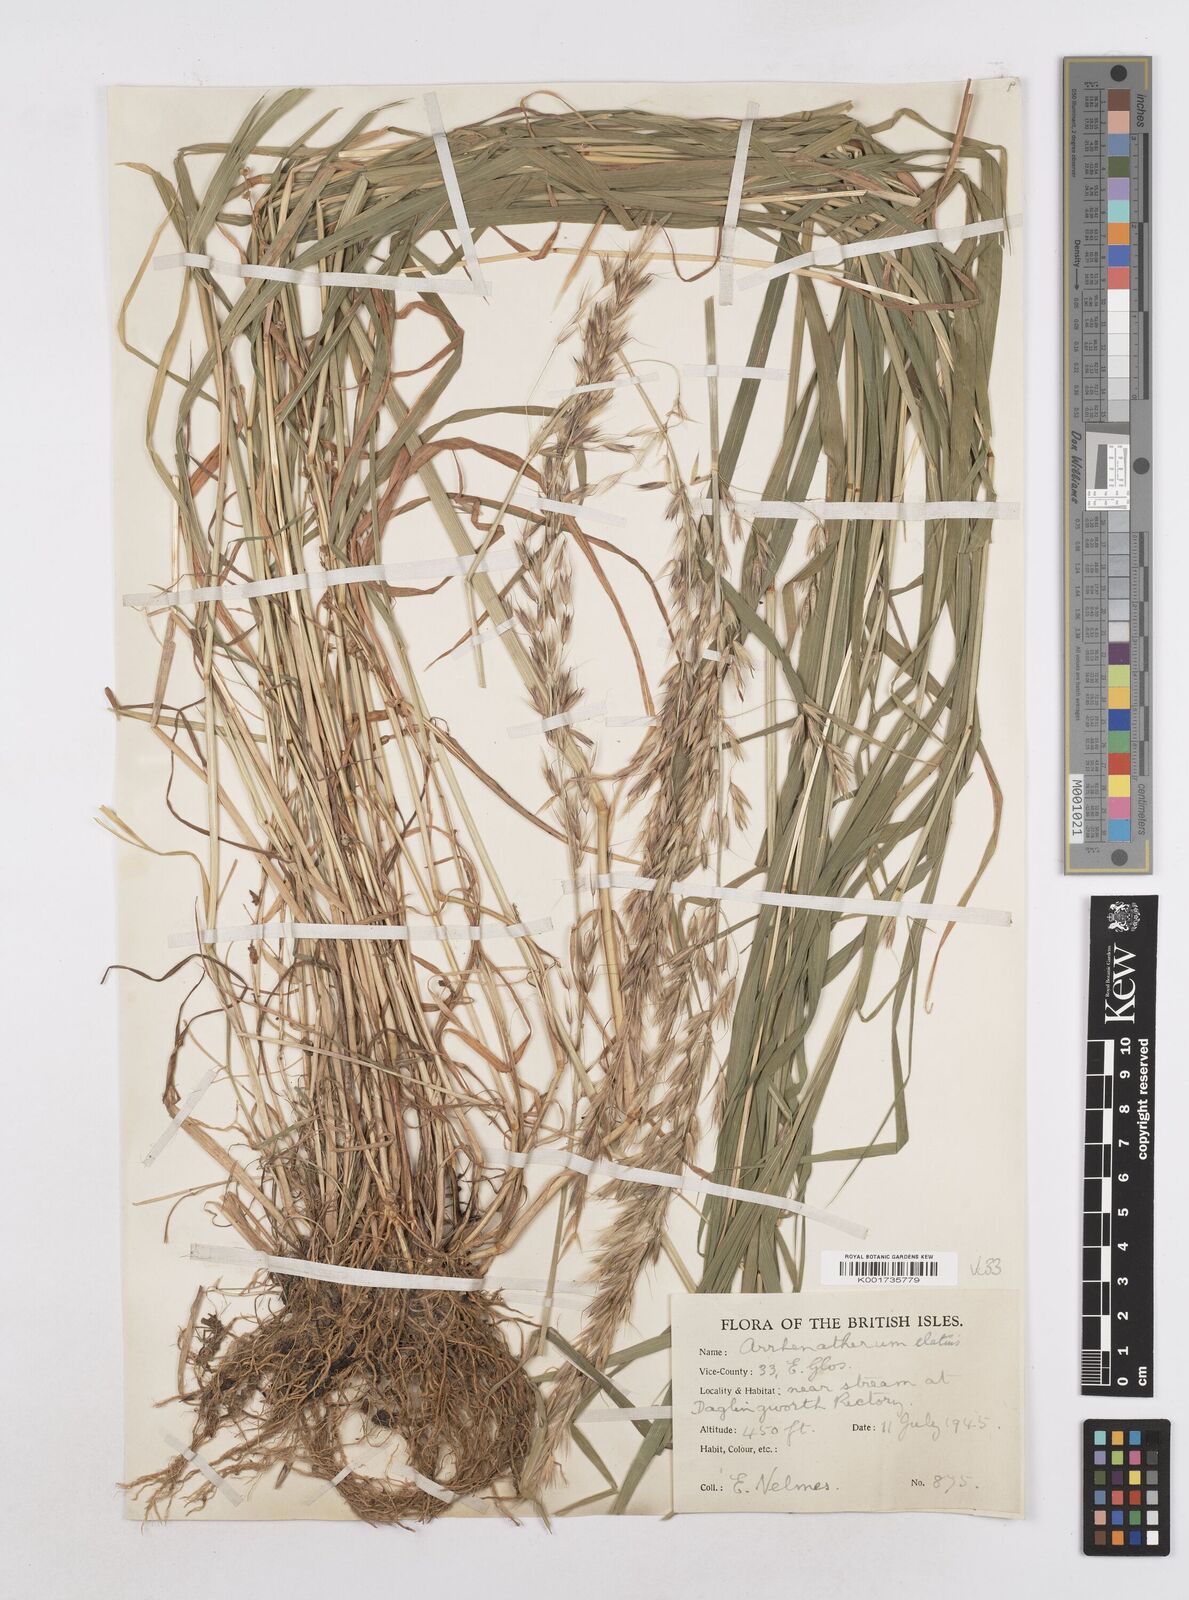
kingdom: Plantae
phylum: Tracheophyta
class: Liliopsida
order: Poales
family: Poaceae
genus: Arrhenatherum
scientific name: Arrhenatherum elatius
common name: Tall oatgrass
